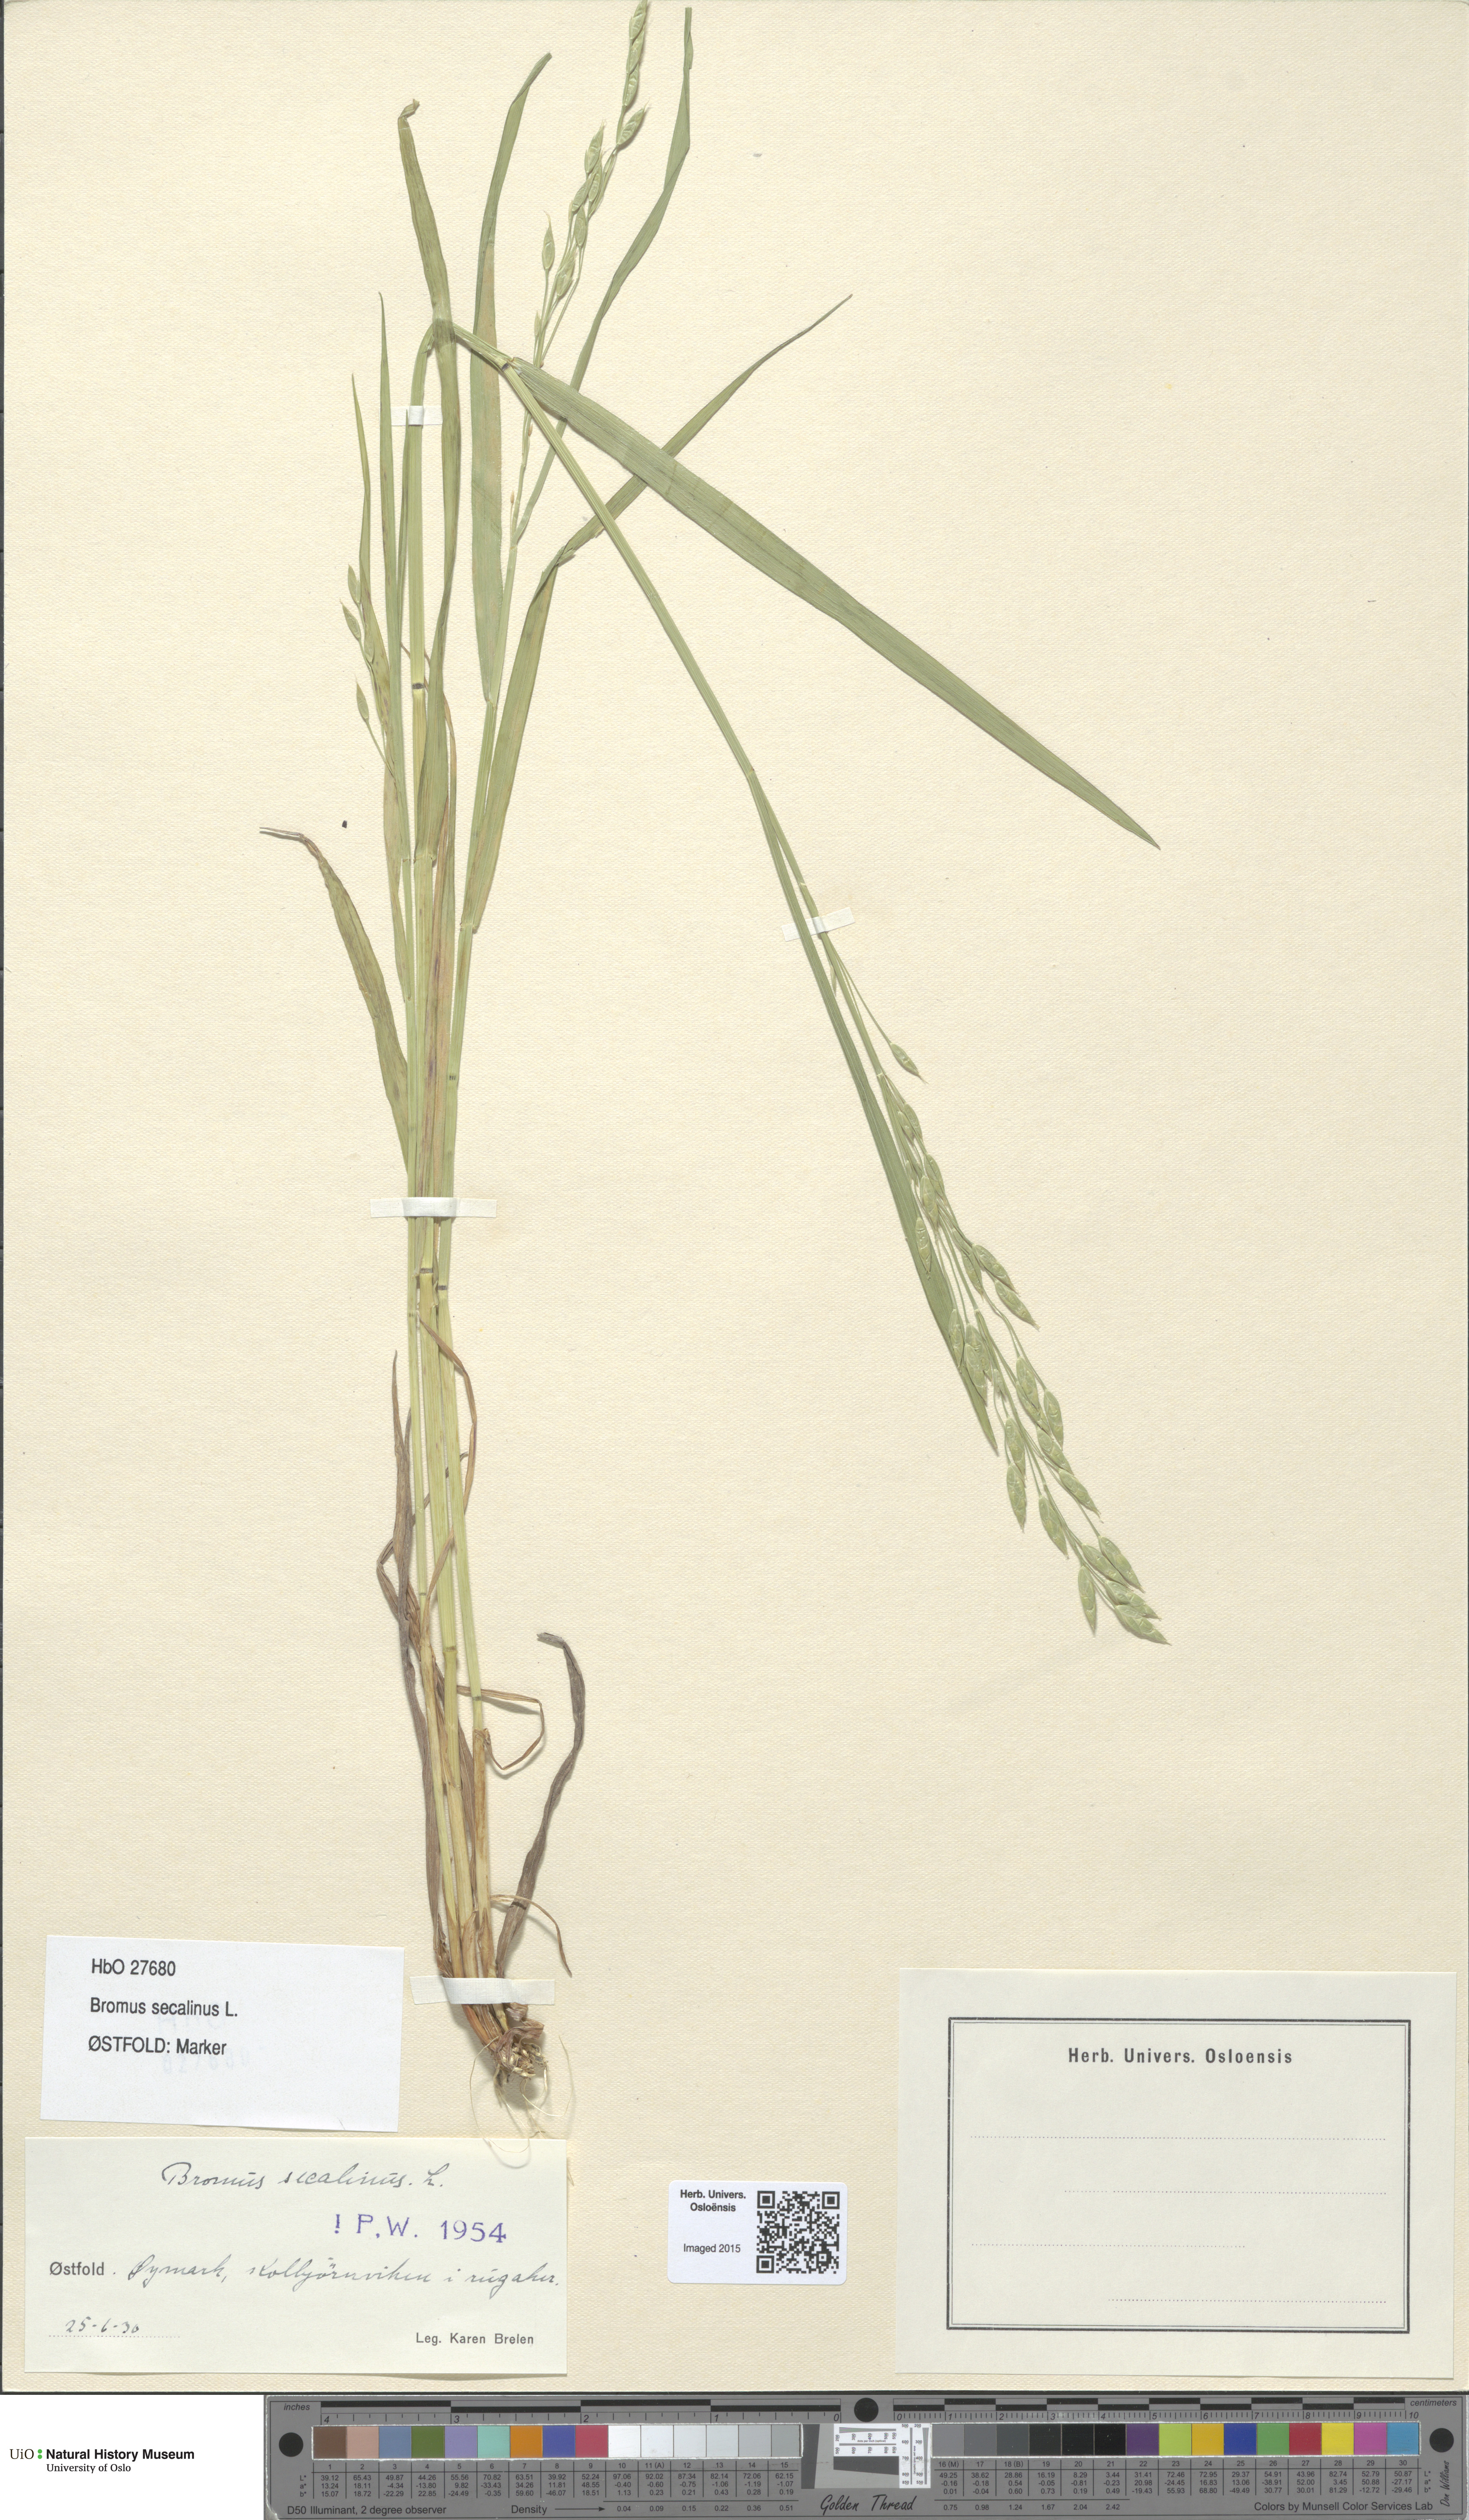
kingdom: Plantae
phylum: Tracheophyta
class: Liliopsida
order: Poales
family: Poaceae
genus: Bromus
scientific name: Bromus secalinus
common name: Rye brome
